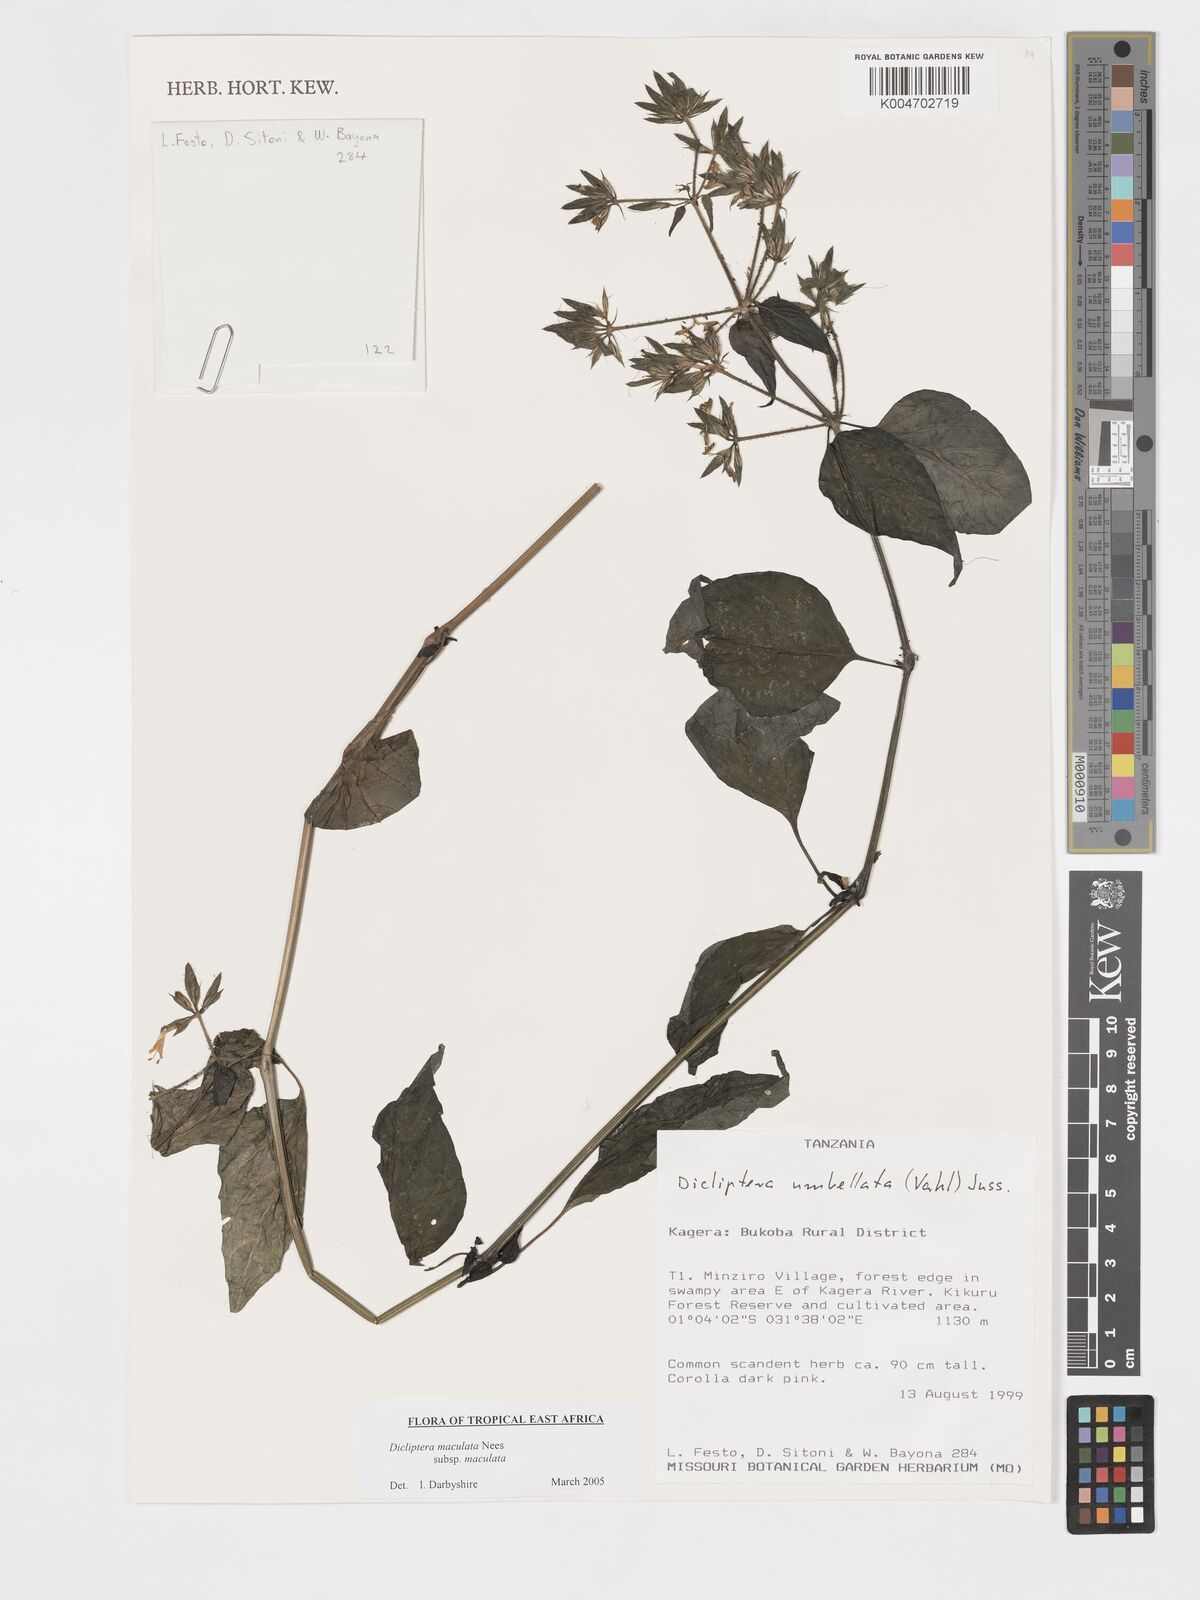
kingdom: Plantae
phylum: Tracheophyta
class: Magnoliopsida
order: Lamiales
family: Acanthaceae
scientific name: Acanthaceae
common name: Acanthaceae
